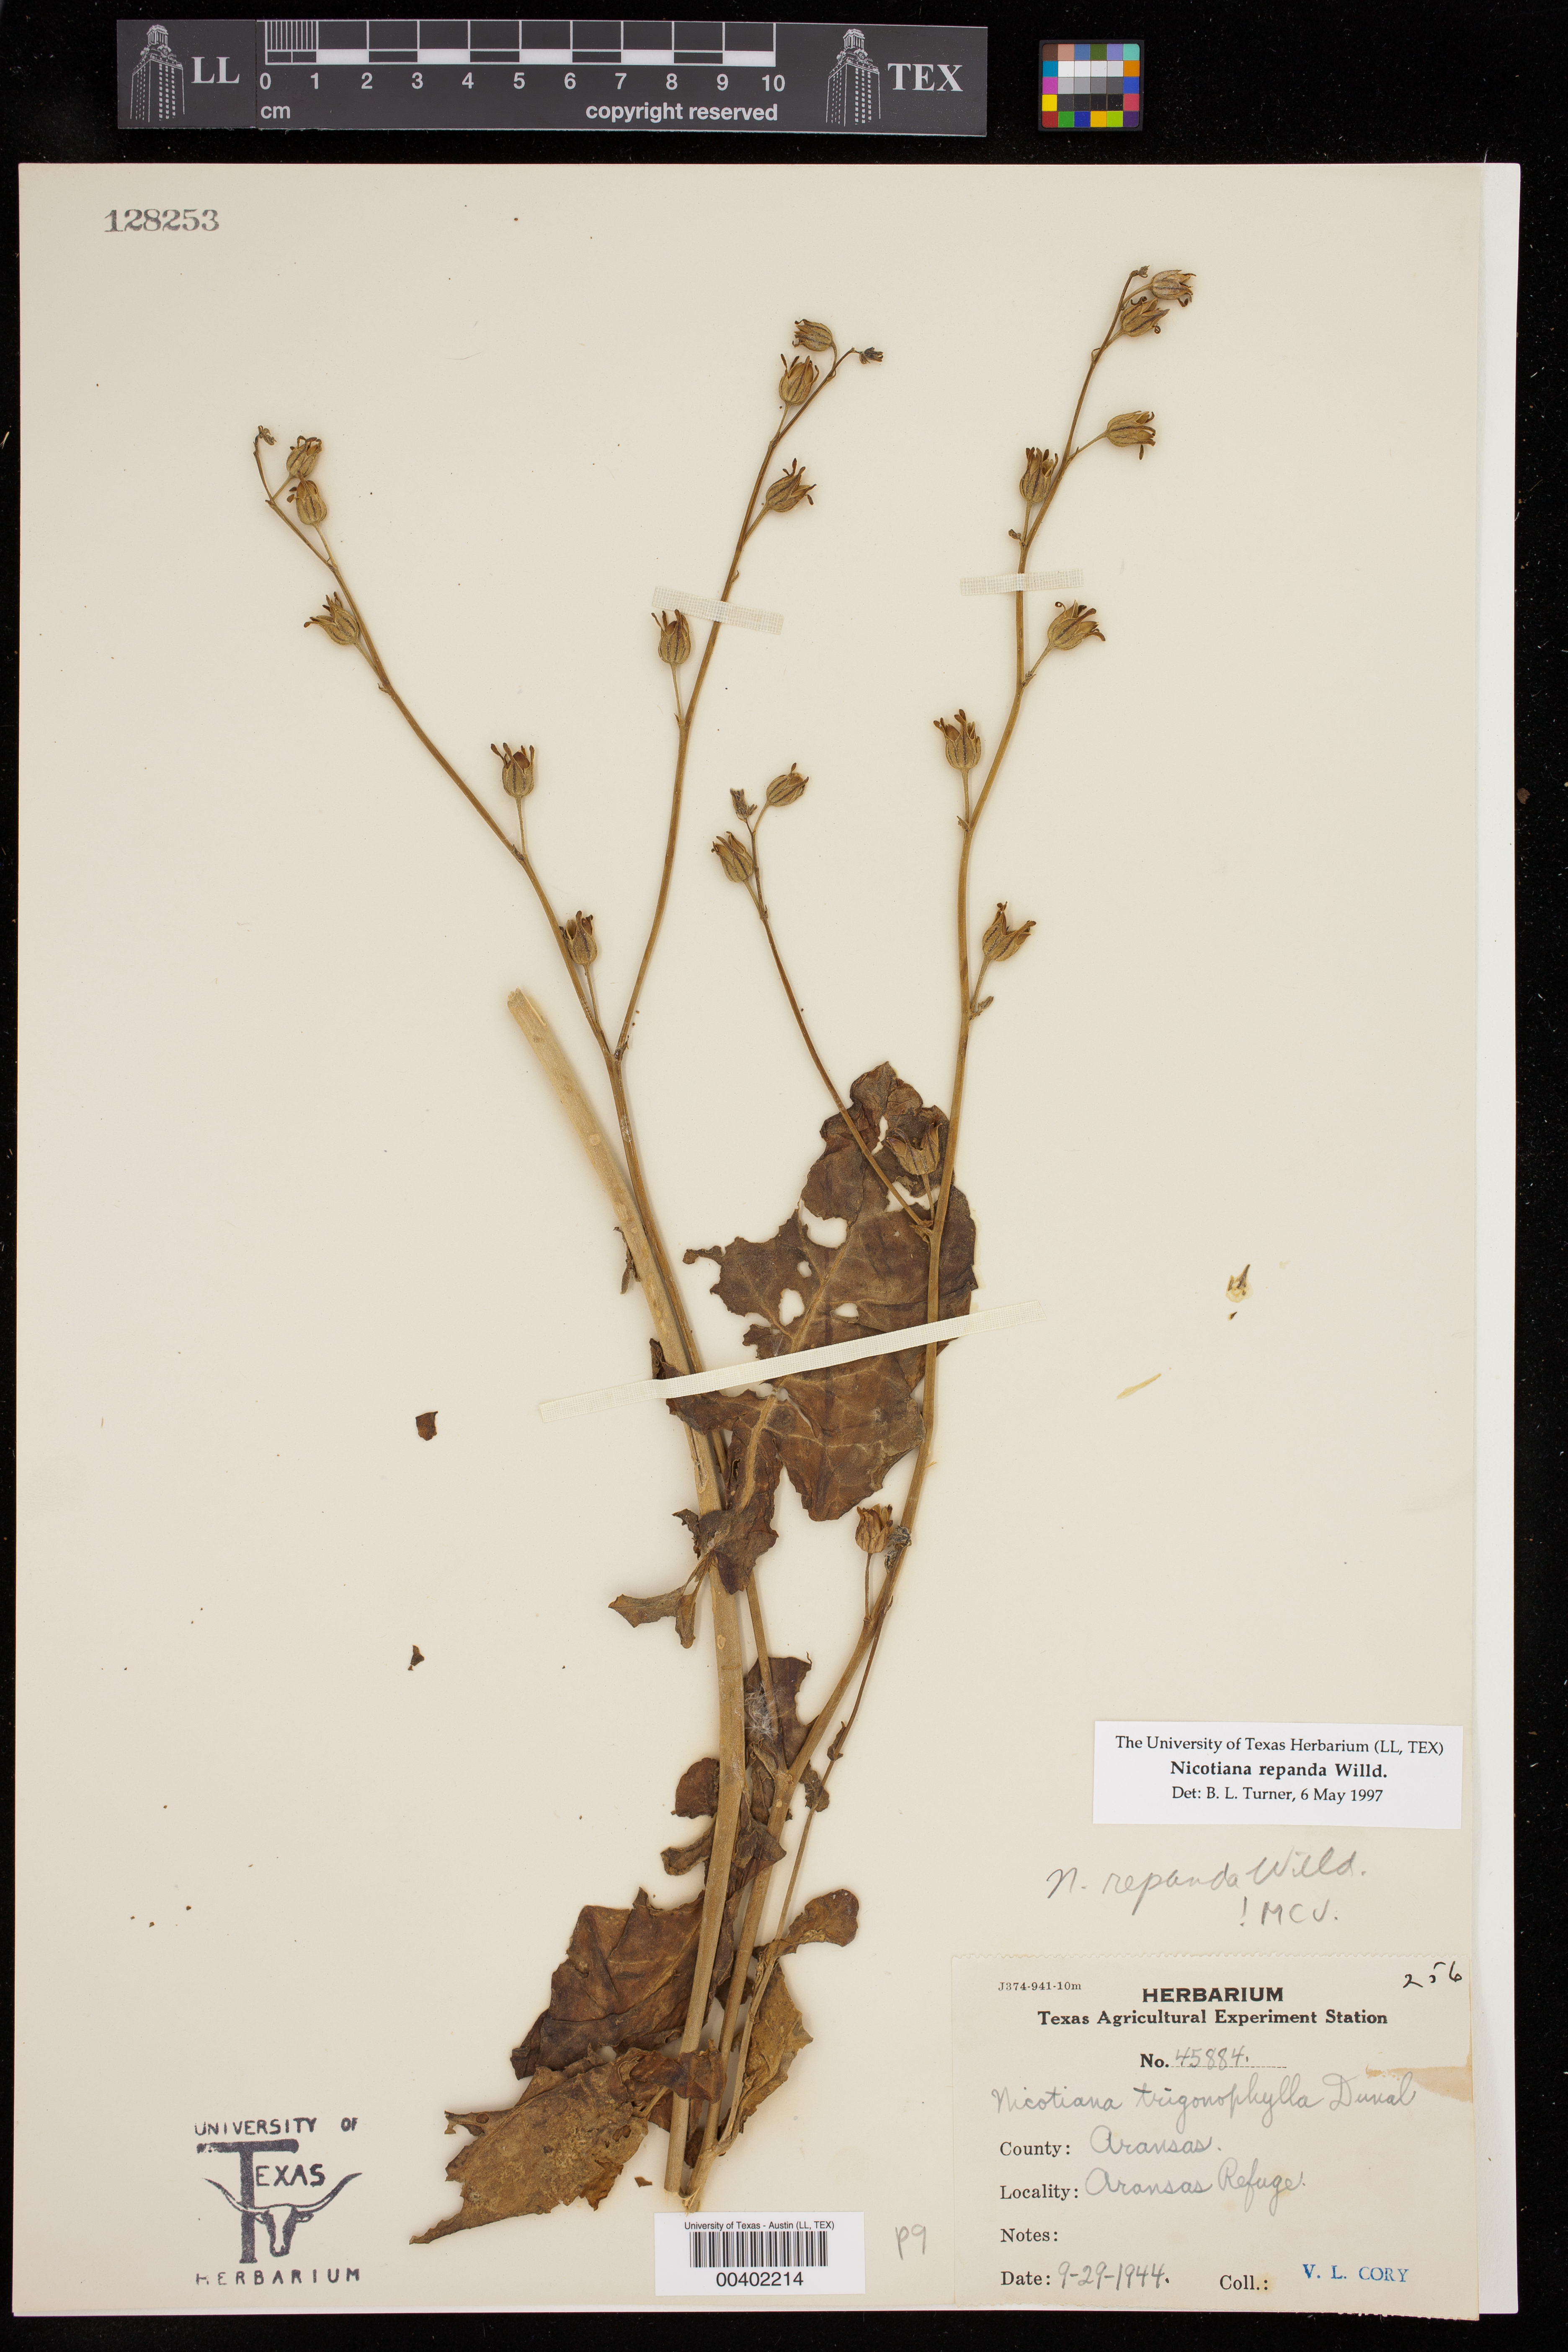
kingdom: Plantae
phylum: Tracheophyta
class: Magnoliopsida
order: Solanales
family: Solanaceae
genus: Nicotiana
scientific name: Nicotiana repanda
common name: Fiddle-leaf tobacco
